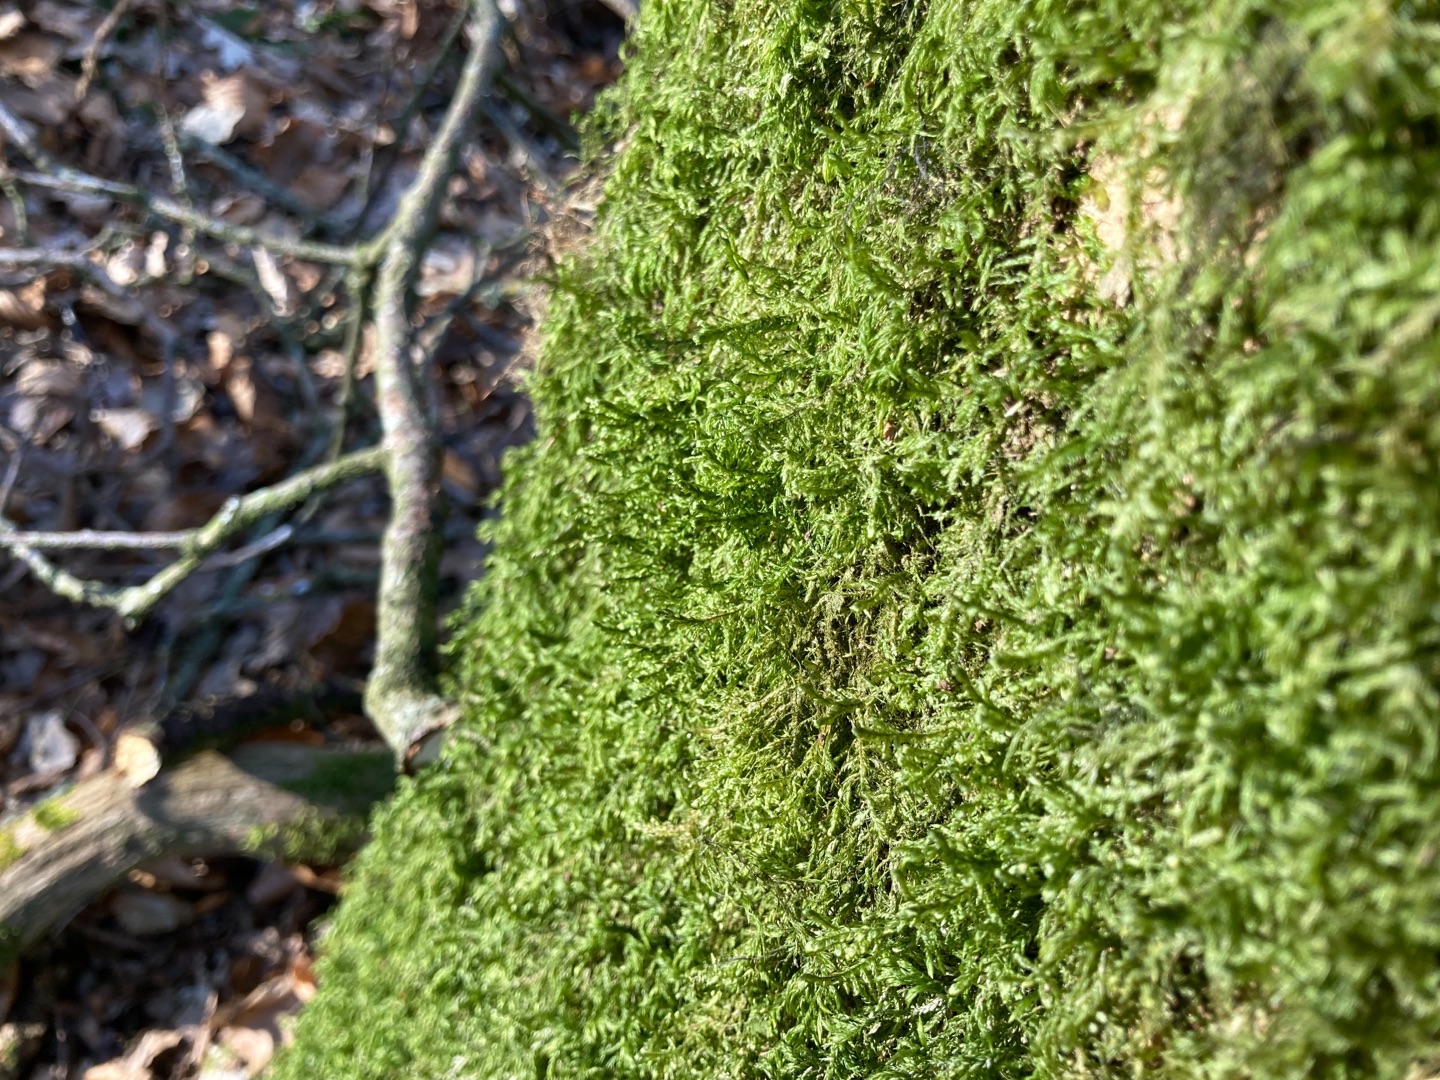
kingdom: Plantae
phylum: Bryophyta
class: Bryopsida
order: Hypnales
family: Neckeraceae
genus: Alleniella
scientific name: Alleniella complanata
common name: Almindelig fladmos
